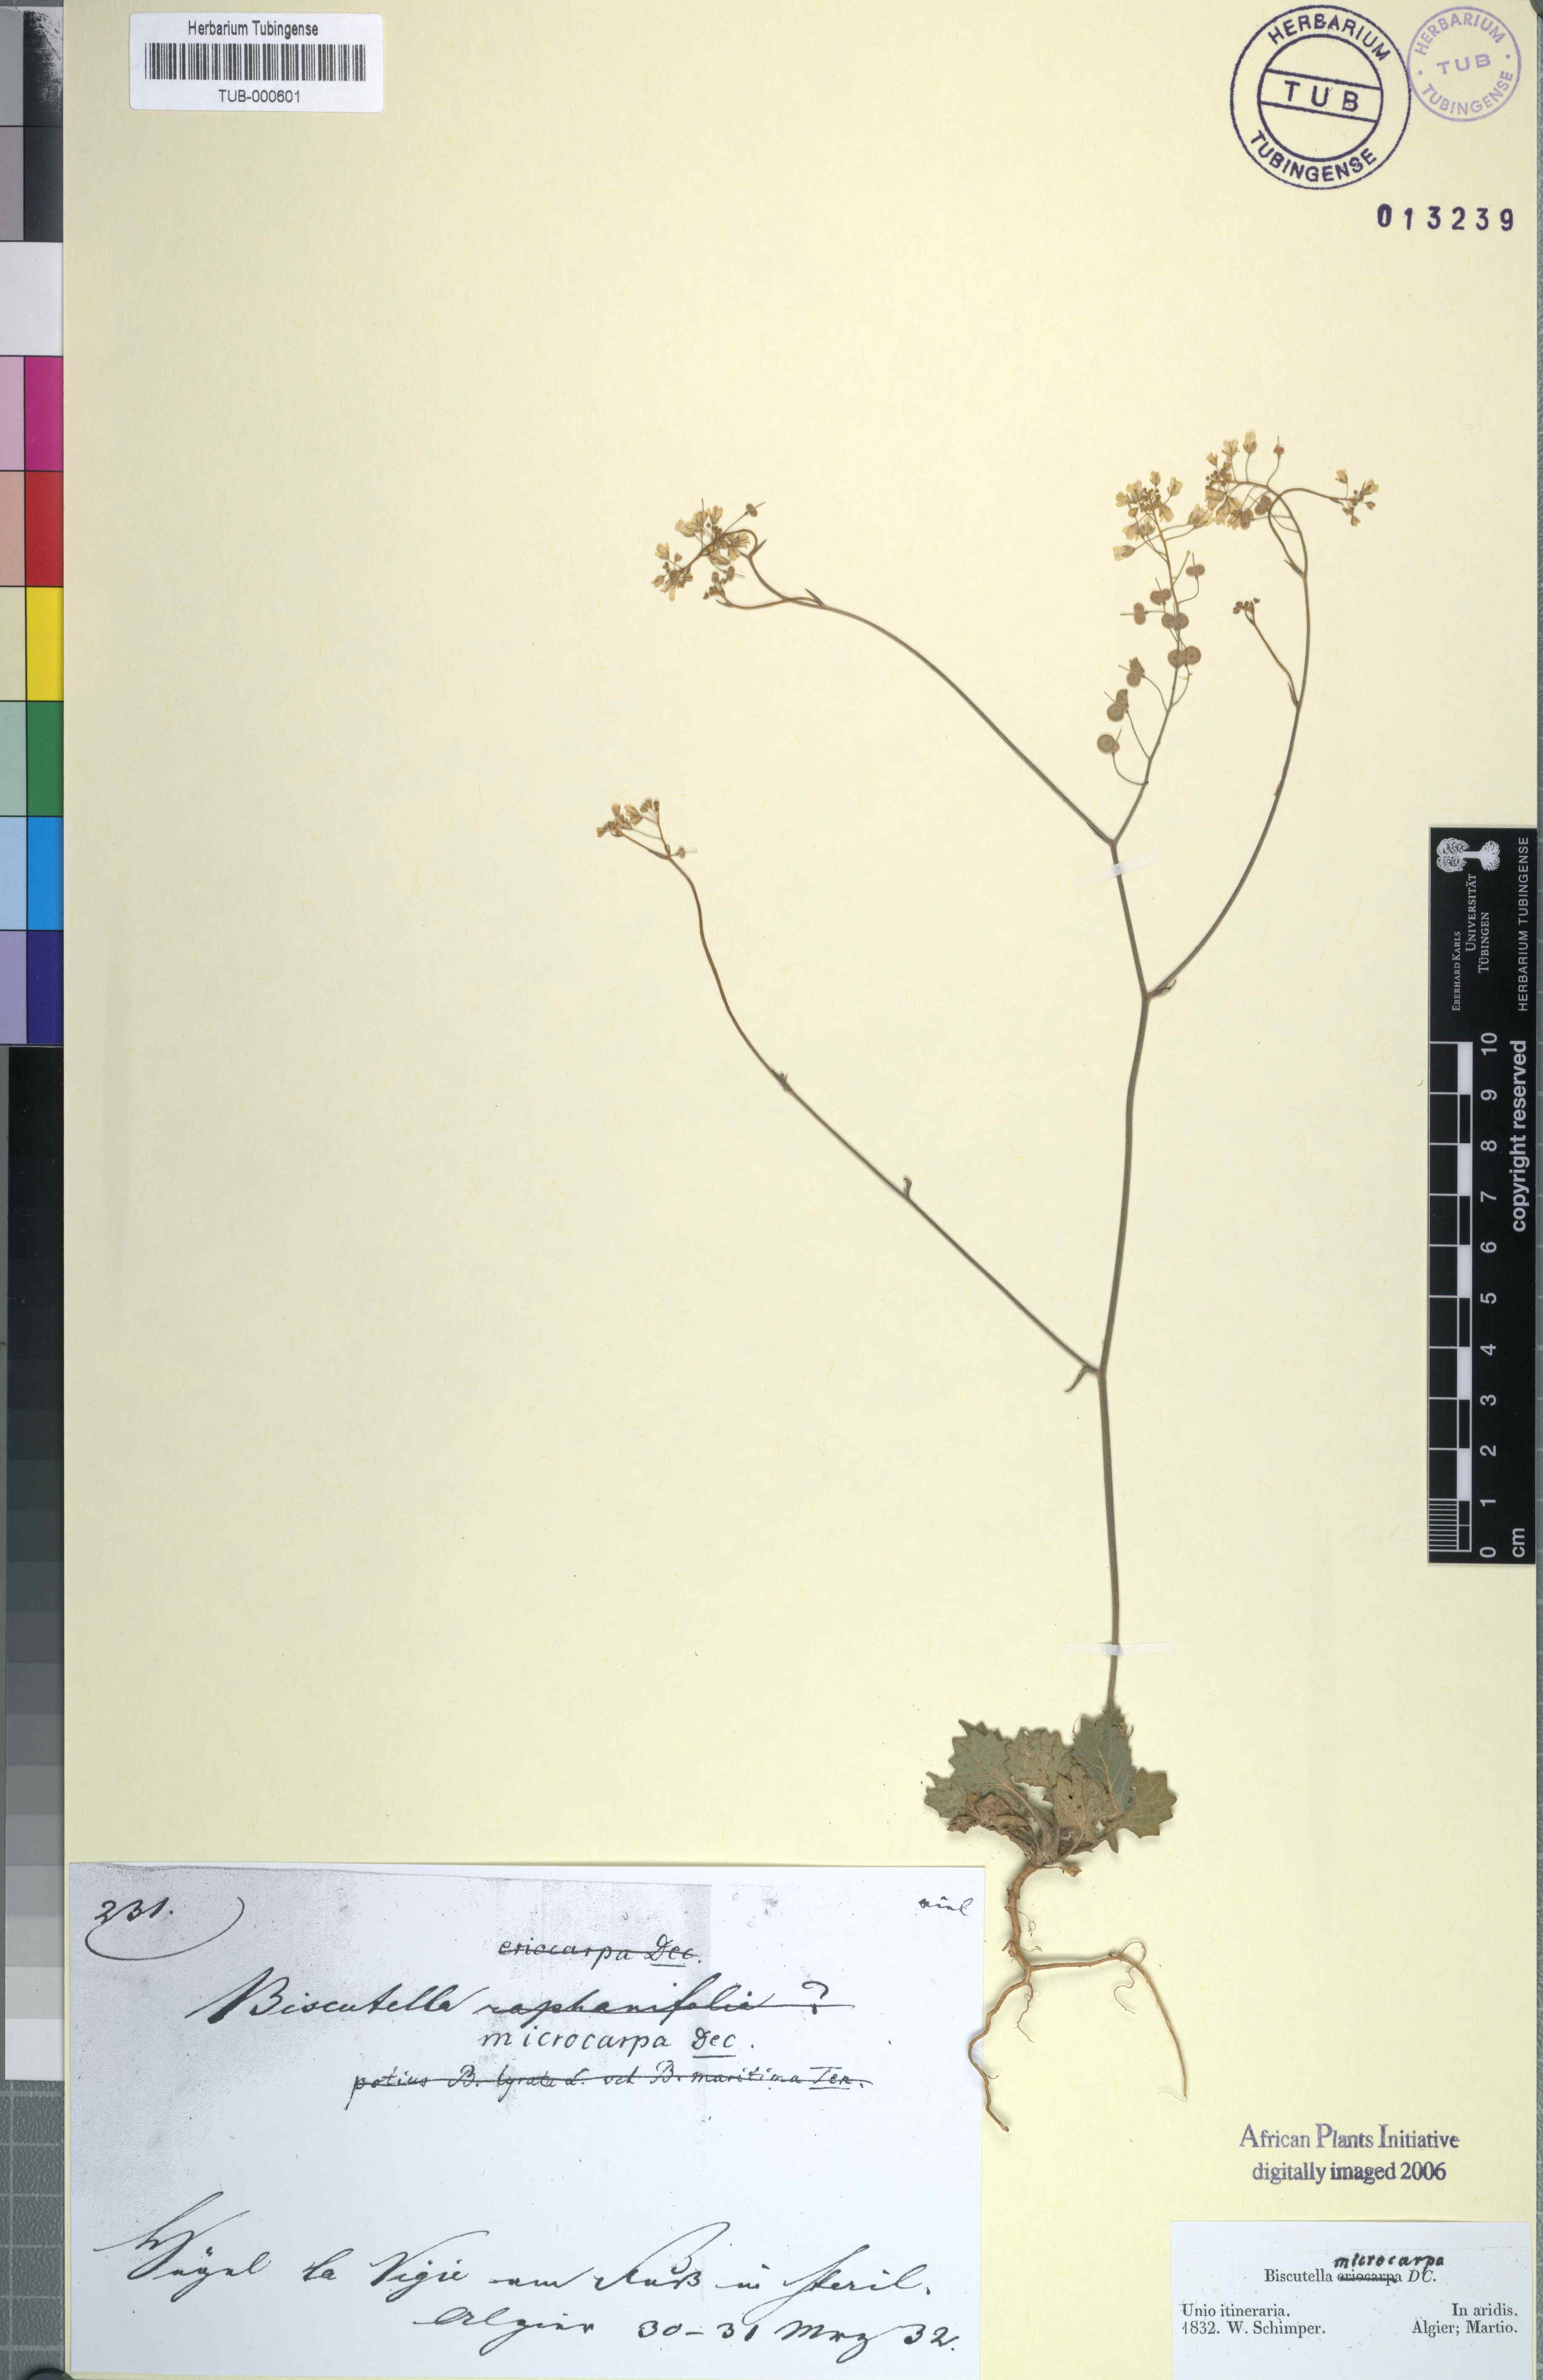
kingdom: Plantae
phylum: Tracheophyta
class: Magnoliopsida
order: Brassicales
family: Brassicaceae
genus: Biscutella
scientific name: Biscutella lyrata
